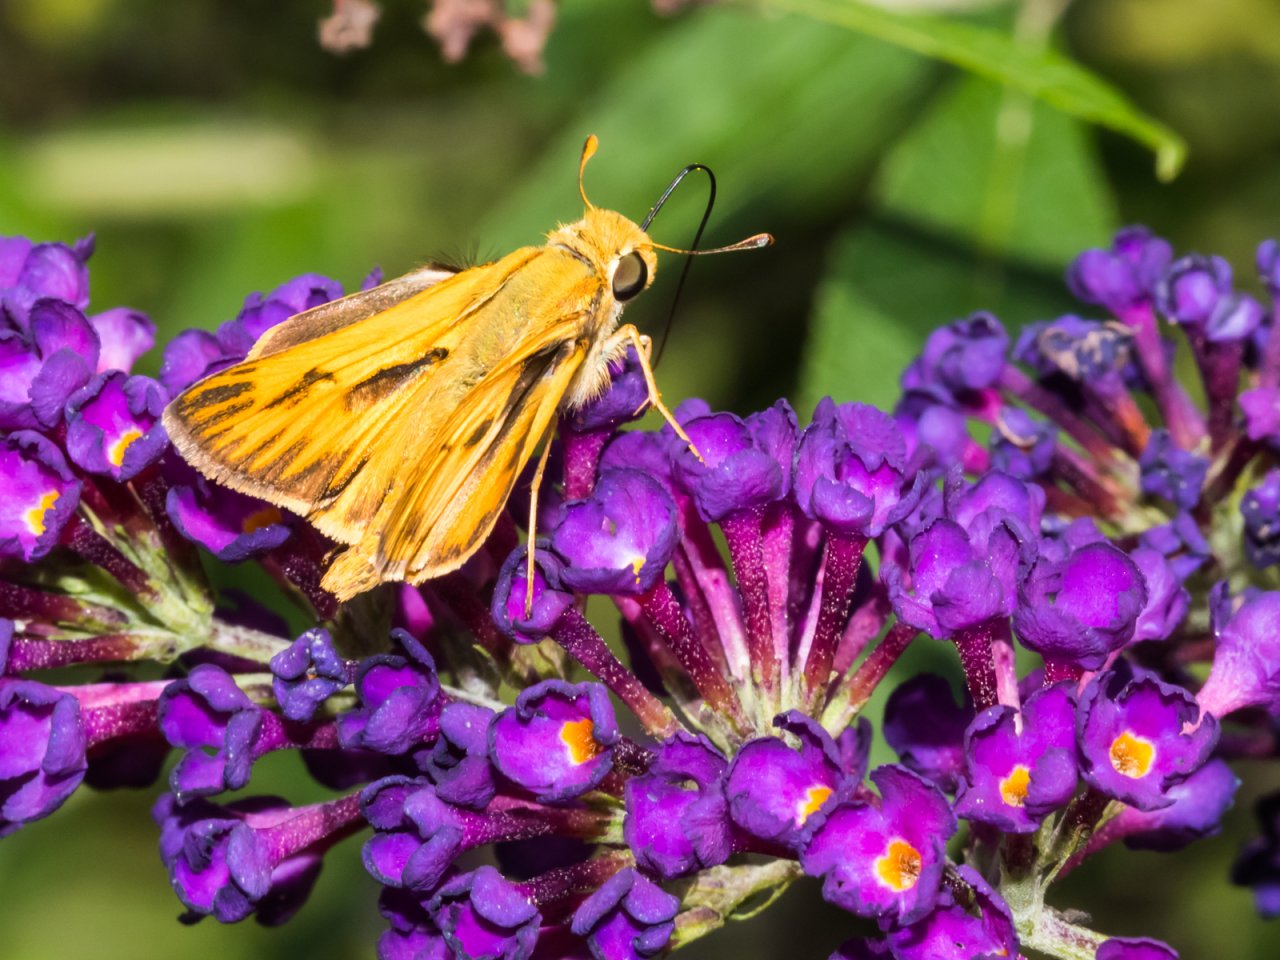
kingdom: Animalia
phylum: Arthropoda
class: Insecta
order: Lepidoptera
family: Hesperiidae
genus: Hylephila
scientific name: Hylephila phyleus
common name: Fiery Skipper
